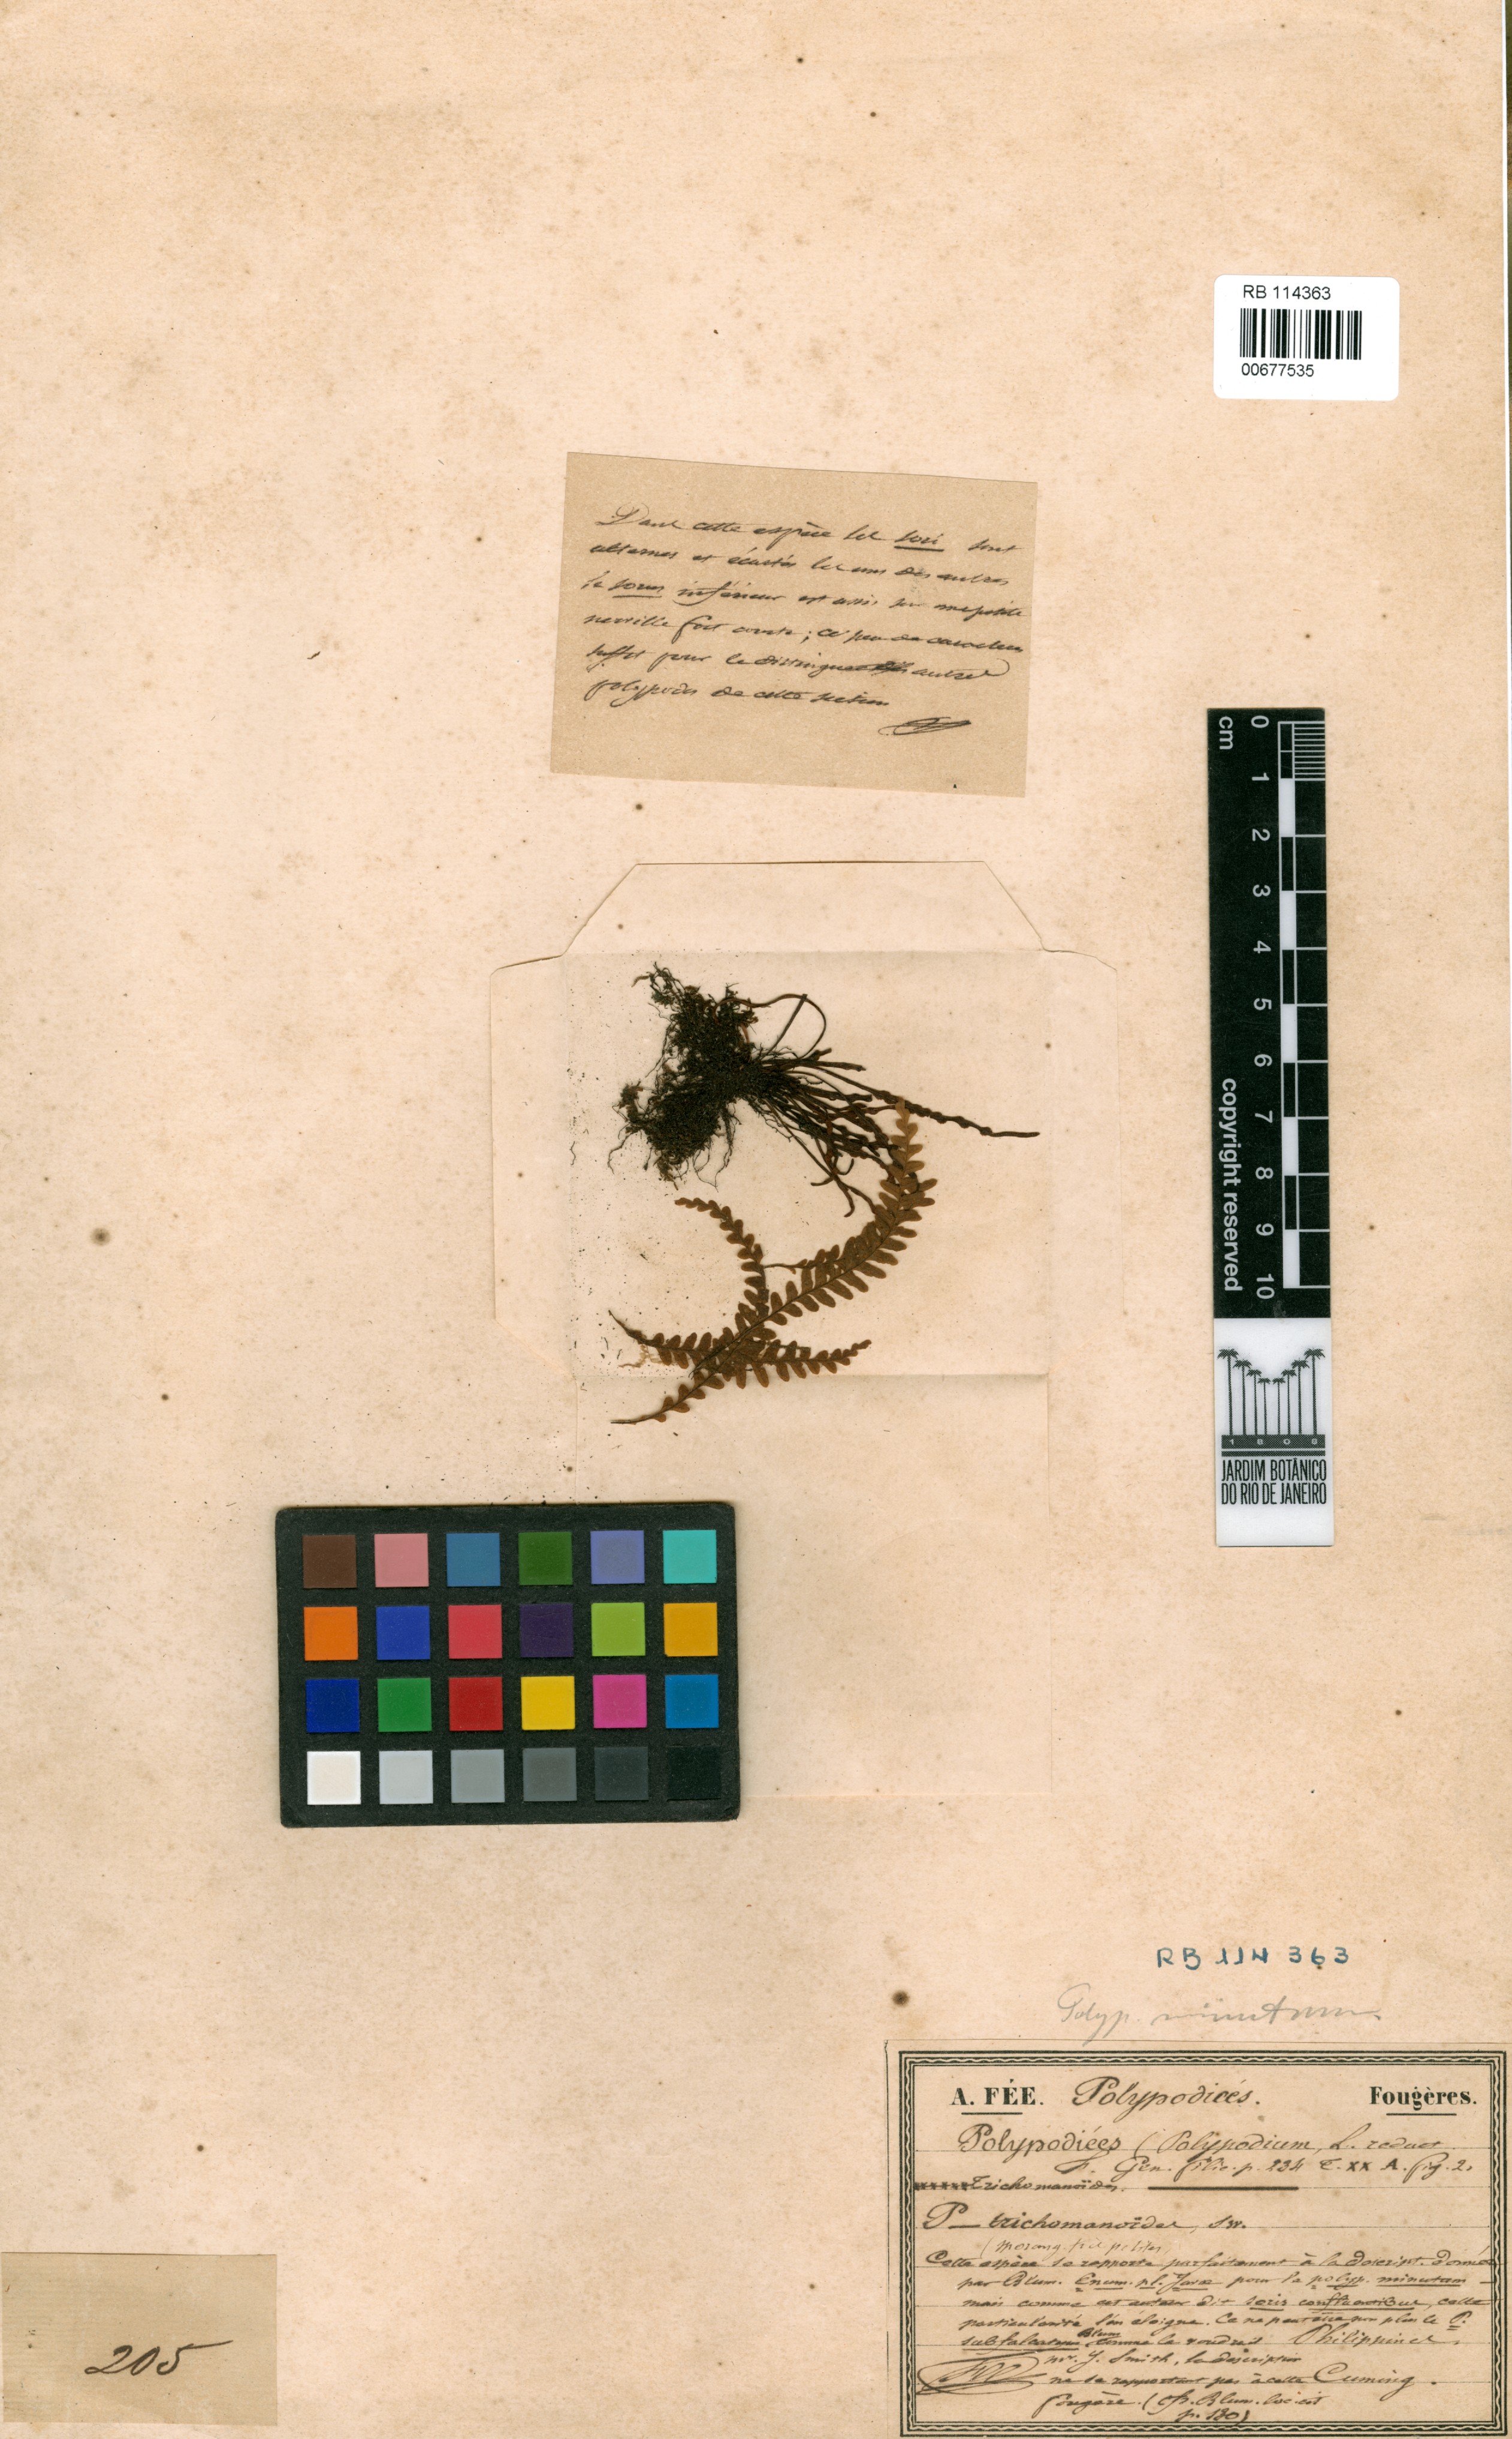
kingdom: Plantae
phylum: Tracheophyta
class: Polypodiopsida
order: Polypodiales
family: Polypodiaceae
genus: Tomophyllum
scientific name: Tomophyllum minutum
